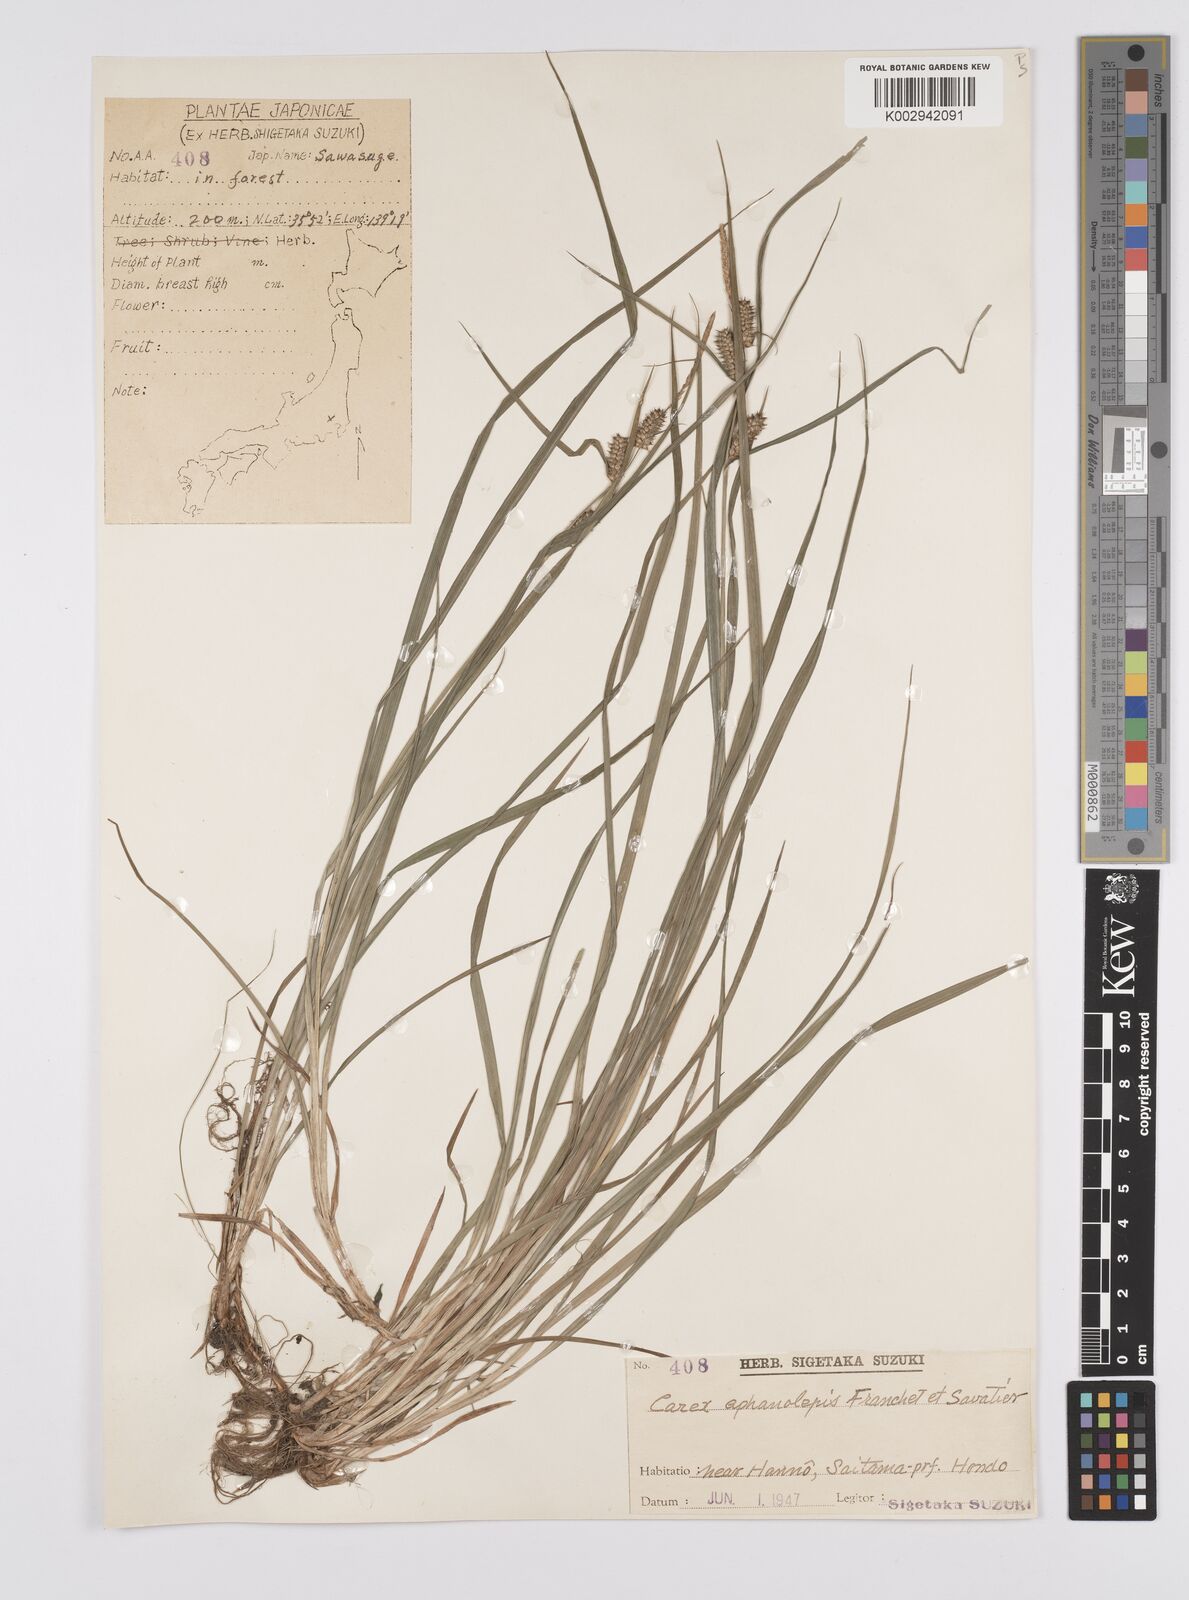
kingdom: Plantae
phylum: Tracheophyta
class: Liliopsida
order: Poales
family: Cyperaceae
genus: Carex
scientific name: Carex japonica
